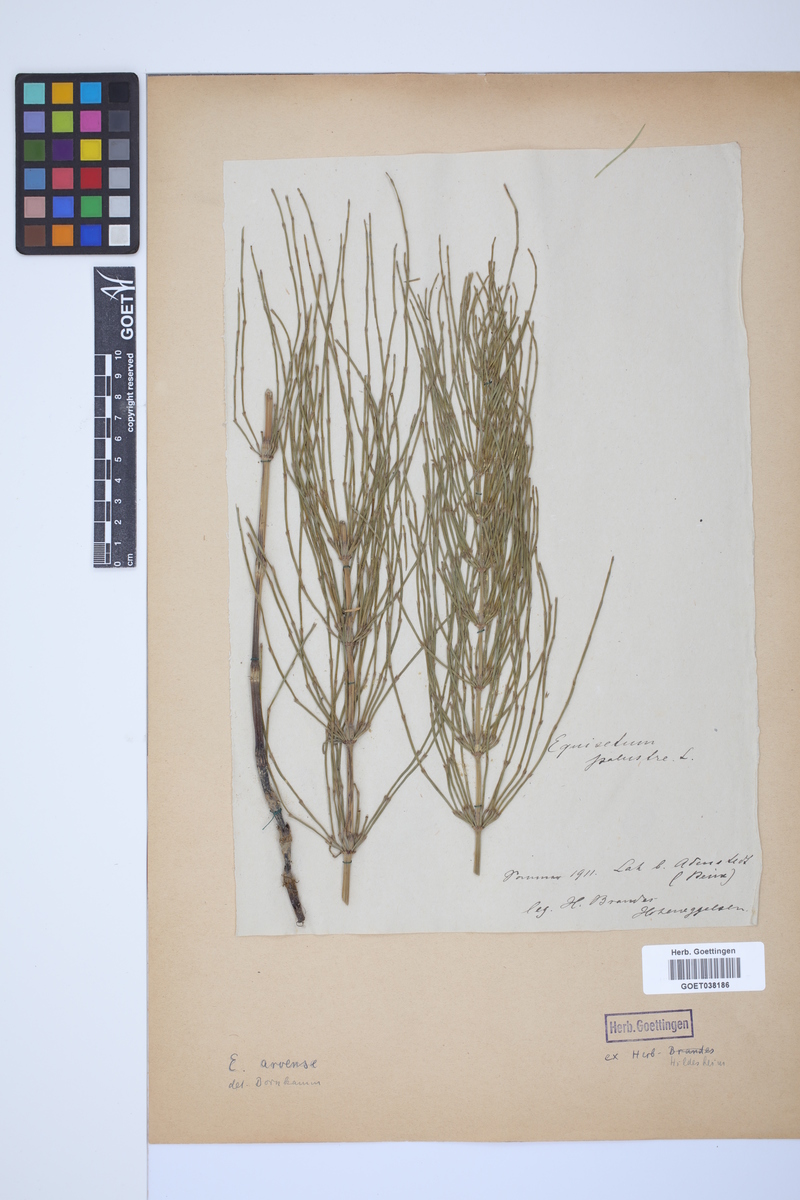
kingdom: Plantae
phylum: Tracheophyta
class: Polypodiopsida
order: Equisetales
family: Equisetaceae
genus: Equisetum
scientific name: Equisetum arvense
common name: Field horsetail
